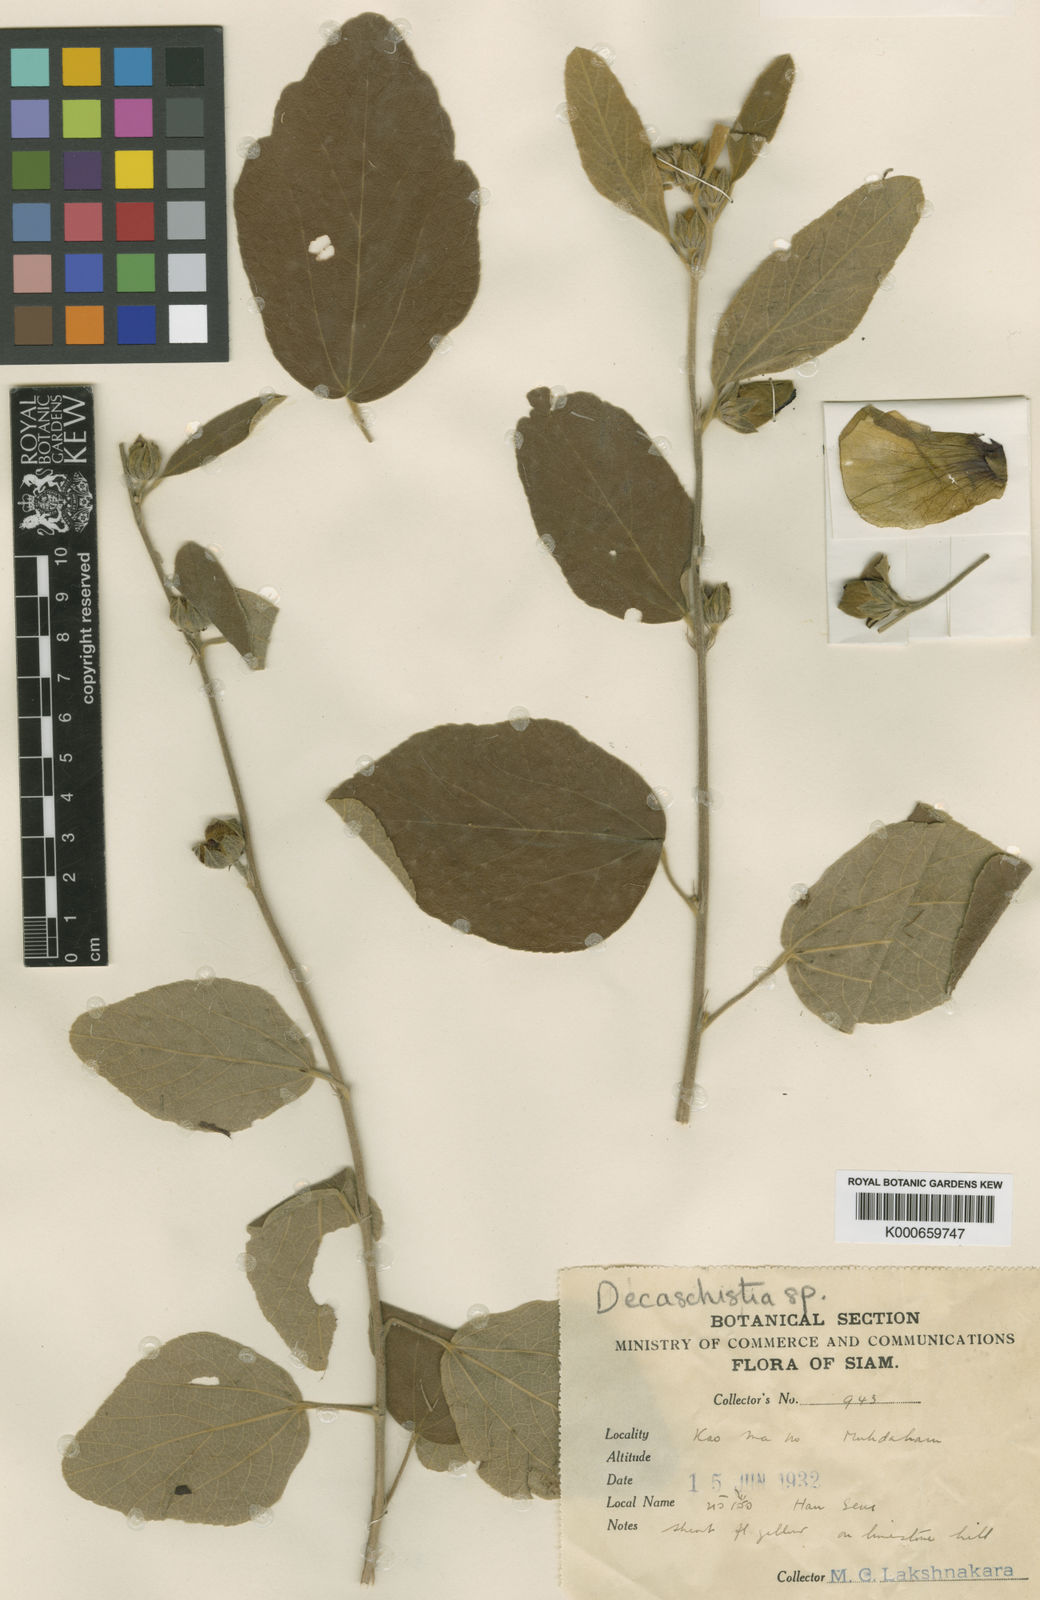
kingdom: Plantae
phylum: Tracheophyta
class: Magnoliopsida
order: Malvales
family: Malvaceae
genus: Decaschistia
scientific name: Decaschistia parviflora
